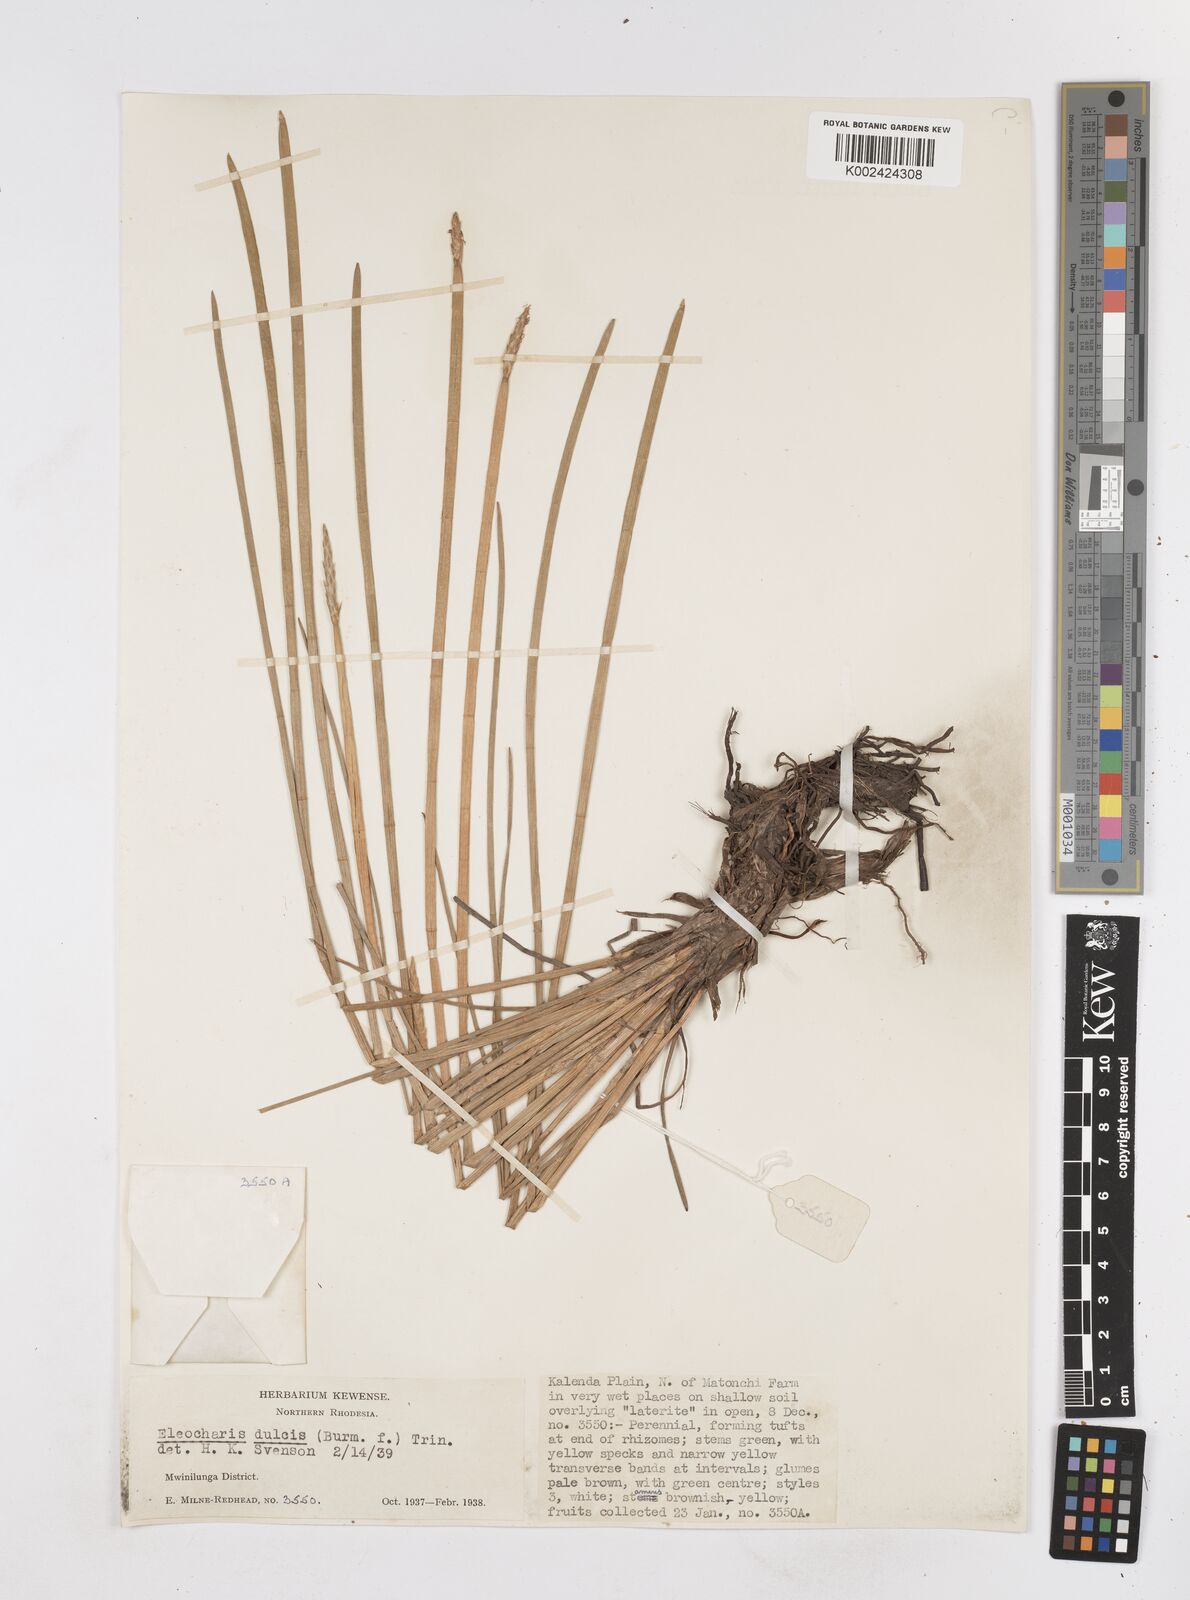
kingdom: Plantae
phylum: Tracheophyta
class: Liliopsida
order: Poales
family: Cyperaceae
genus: Eleocharis
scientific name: Eleocharis dulcis
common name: Chinese water chestnut
